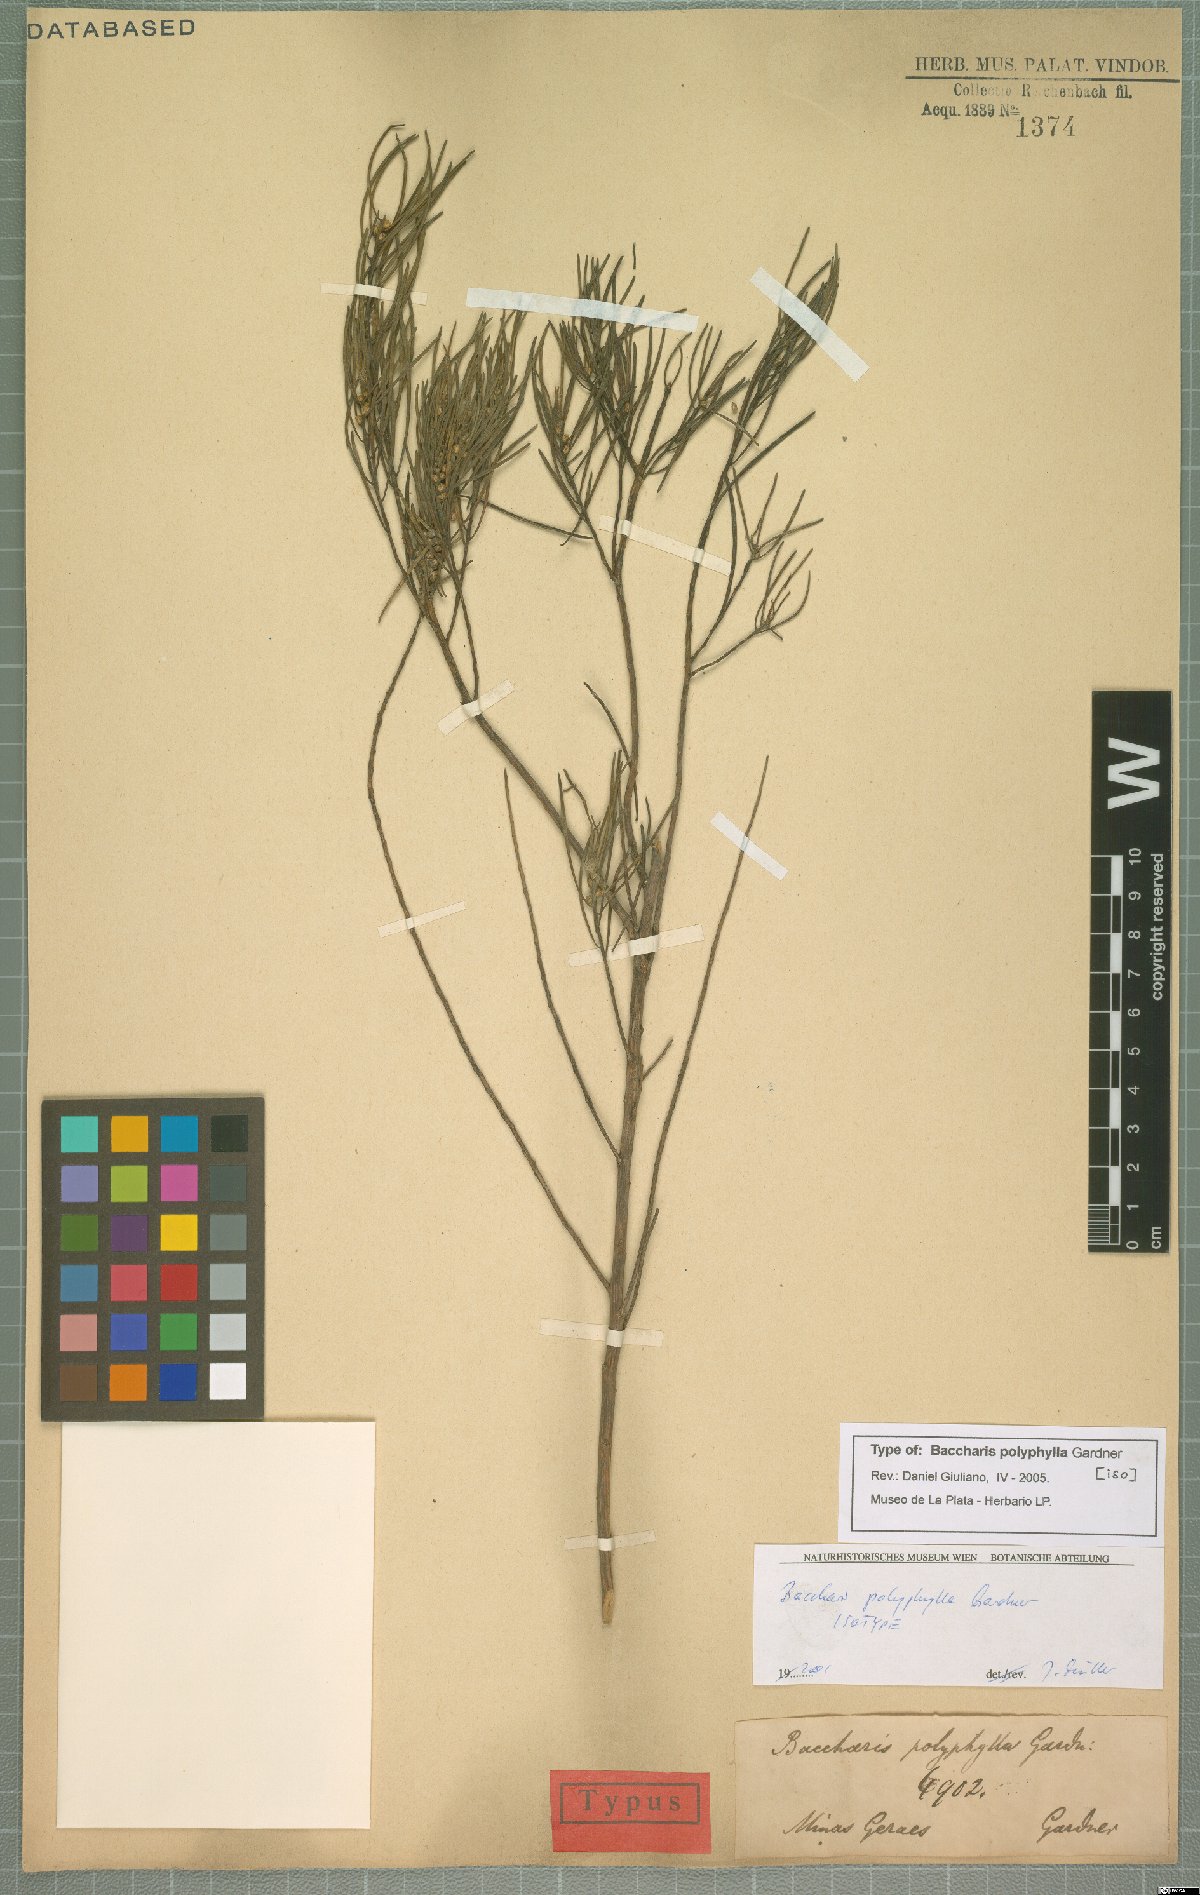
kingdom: Plantae
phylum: Tracheophyta
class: Magnoliopsida
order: Asterales
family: Asteraceae
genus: Baccharis
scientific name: Baccharis polyphylla
